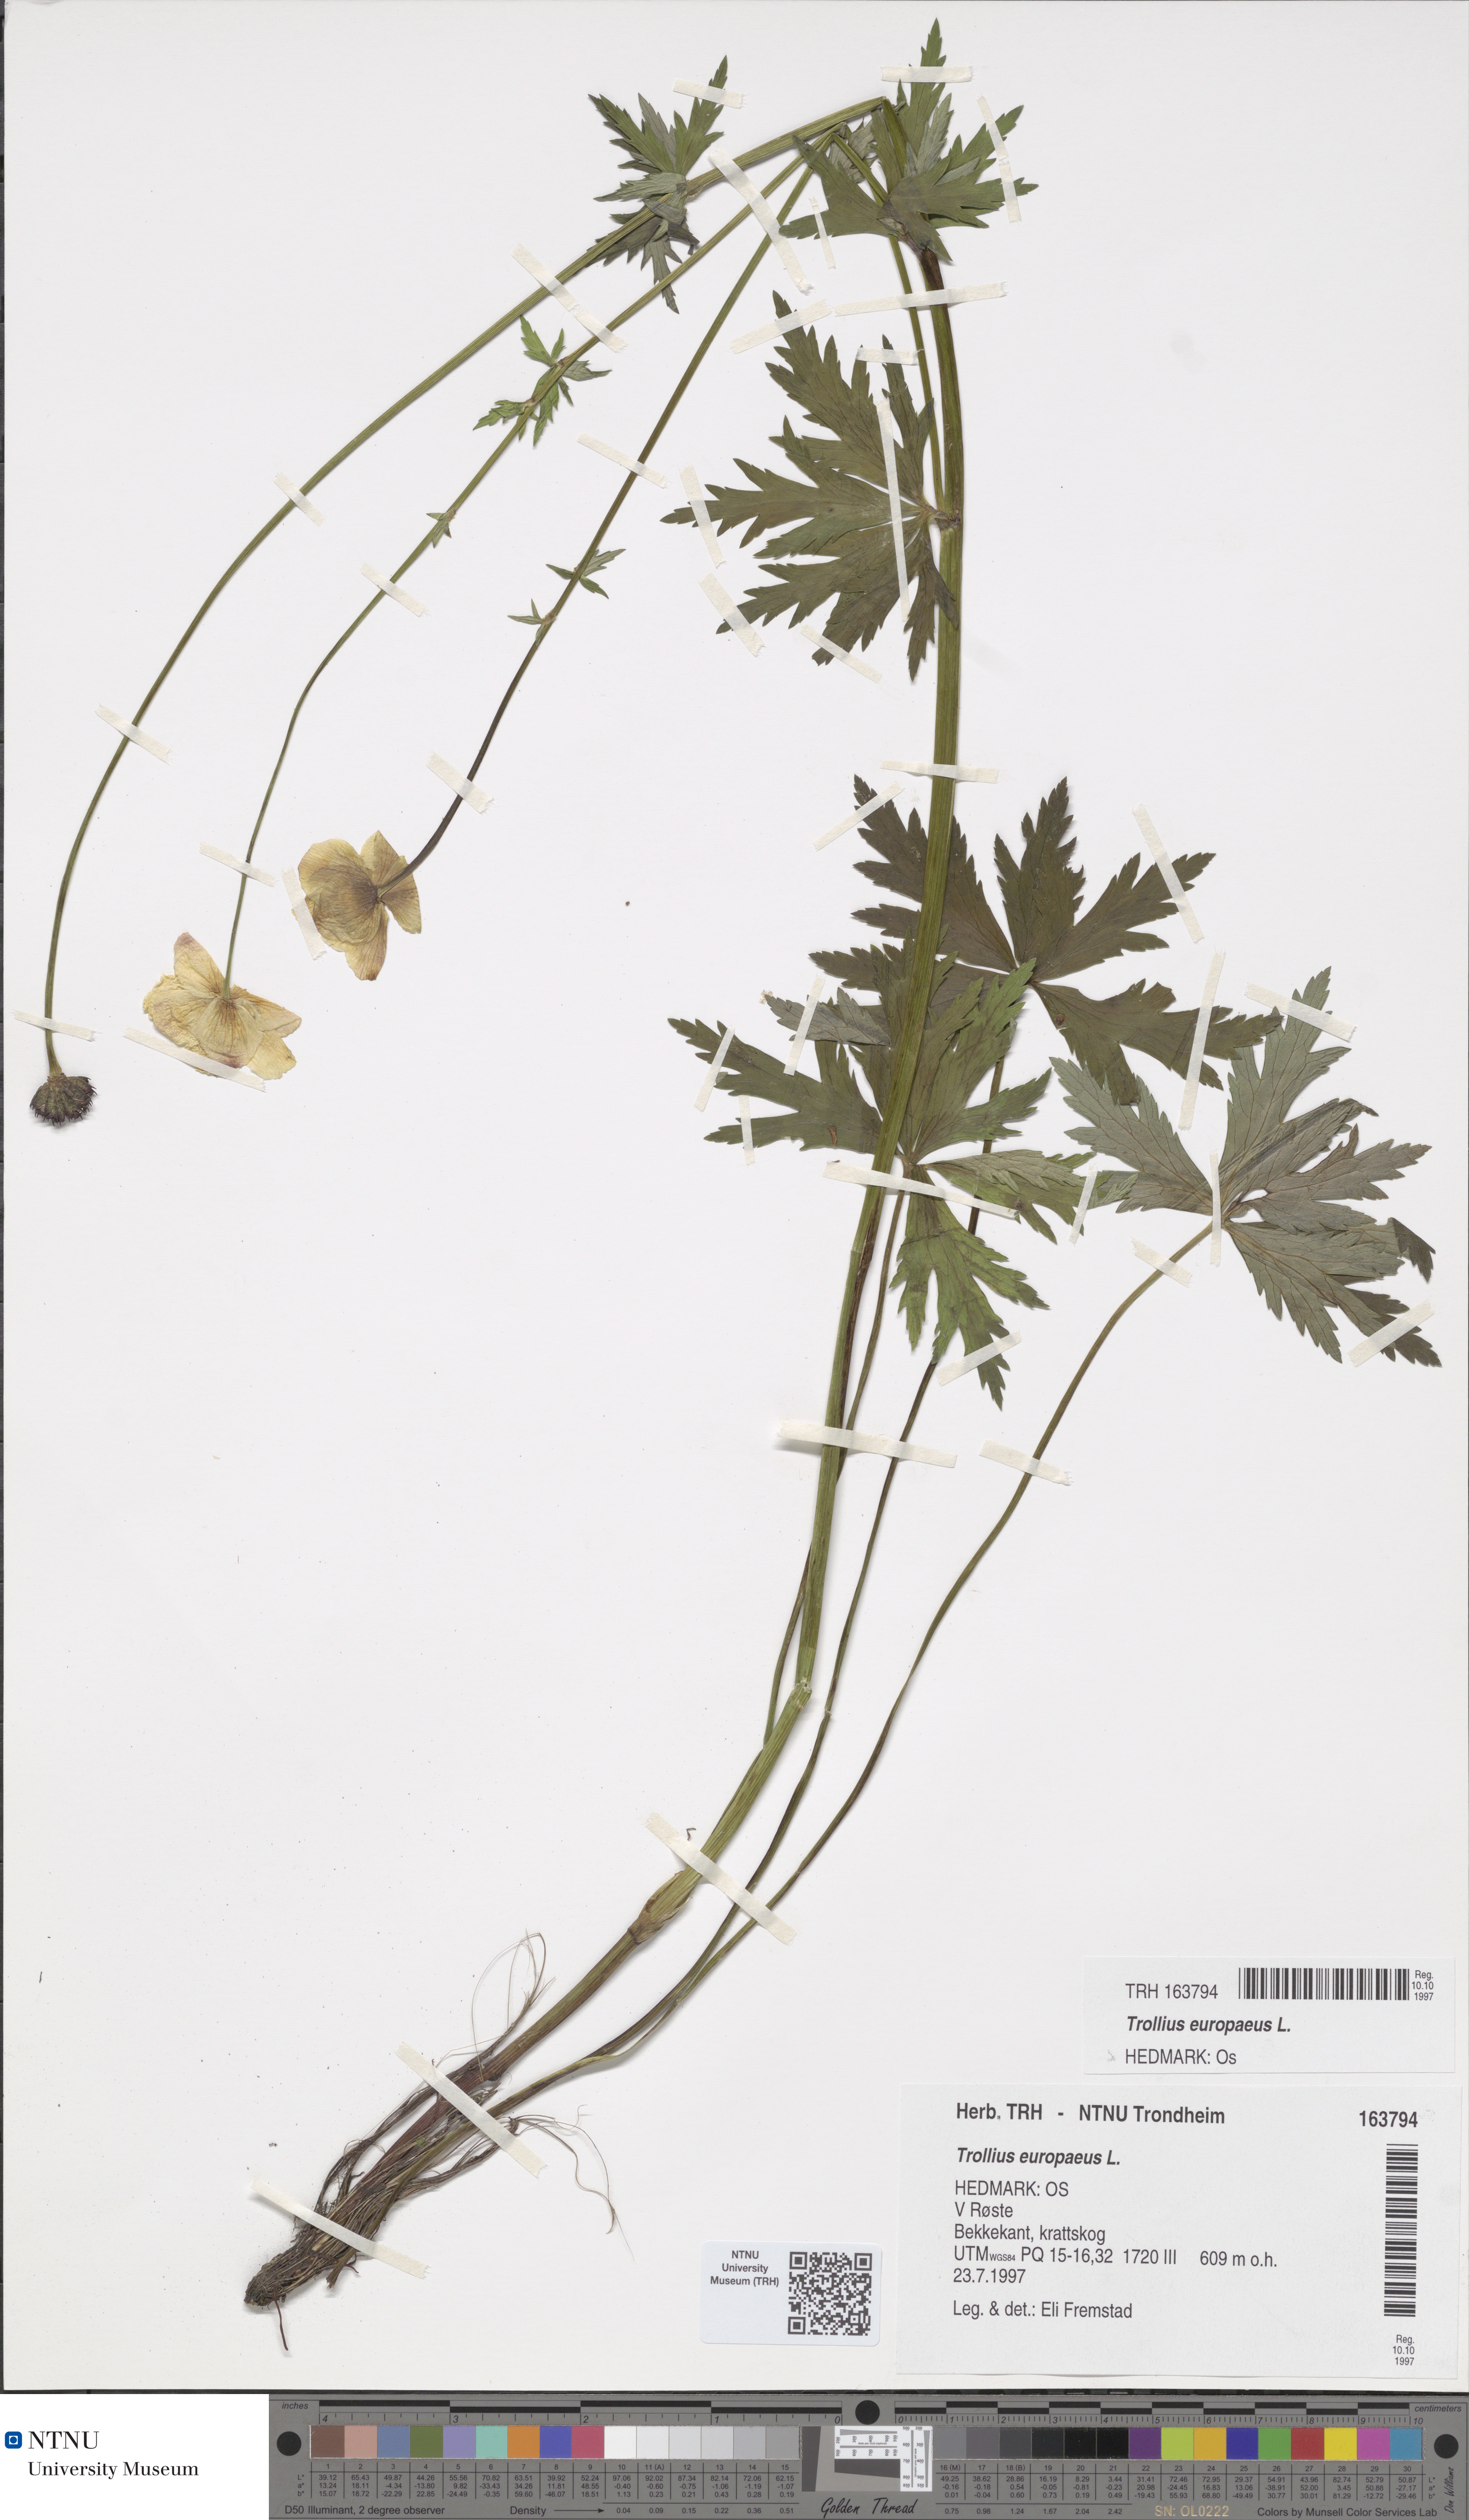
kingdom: Plantae
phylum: Tracheophyta
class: Magnoliopsida
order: Ranunculales
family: Ranunculaceae
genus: Trollius
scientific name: Trollius europaeus
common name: European globeflower
